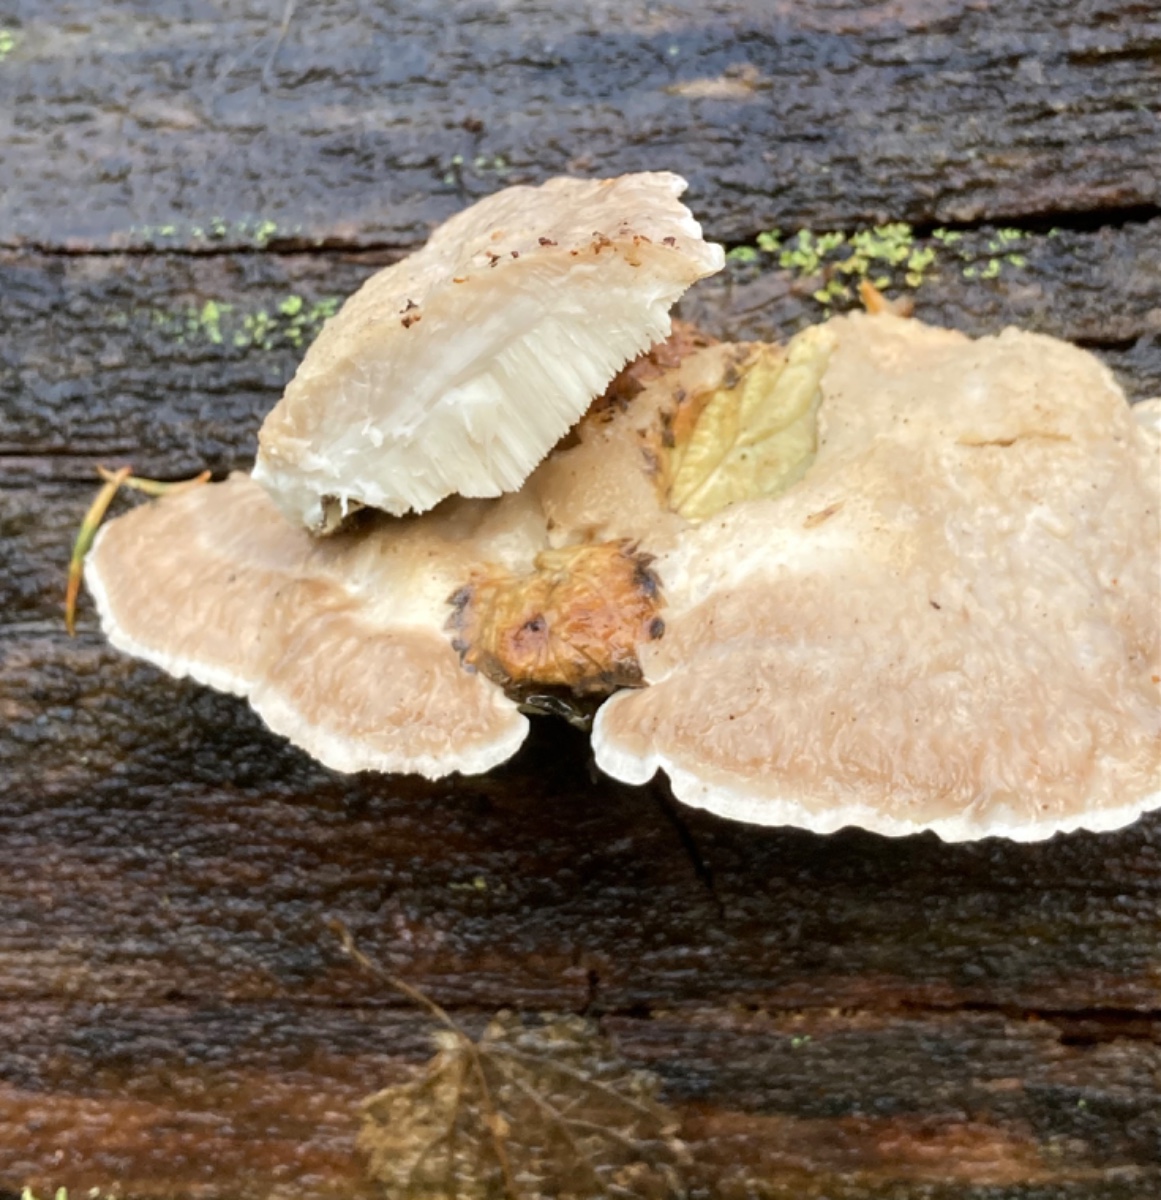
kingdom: Fungi
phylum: Basidiomycota
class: Agaricomycetes
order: Polyporales
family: Incrustoporiaceae
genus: Tyromyces
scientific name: Tyromyces chioneus
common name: stor blødporesvamp
